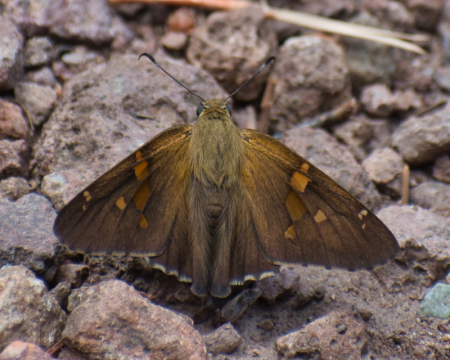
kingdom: Animalia
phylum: Arthropoda
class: Insecta
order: Lepidoptera
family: Hesperiidae
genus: Epargyreus
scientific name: Epargyreus clarus
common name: Silver-spotted Skipper
